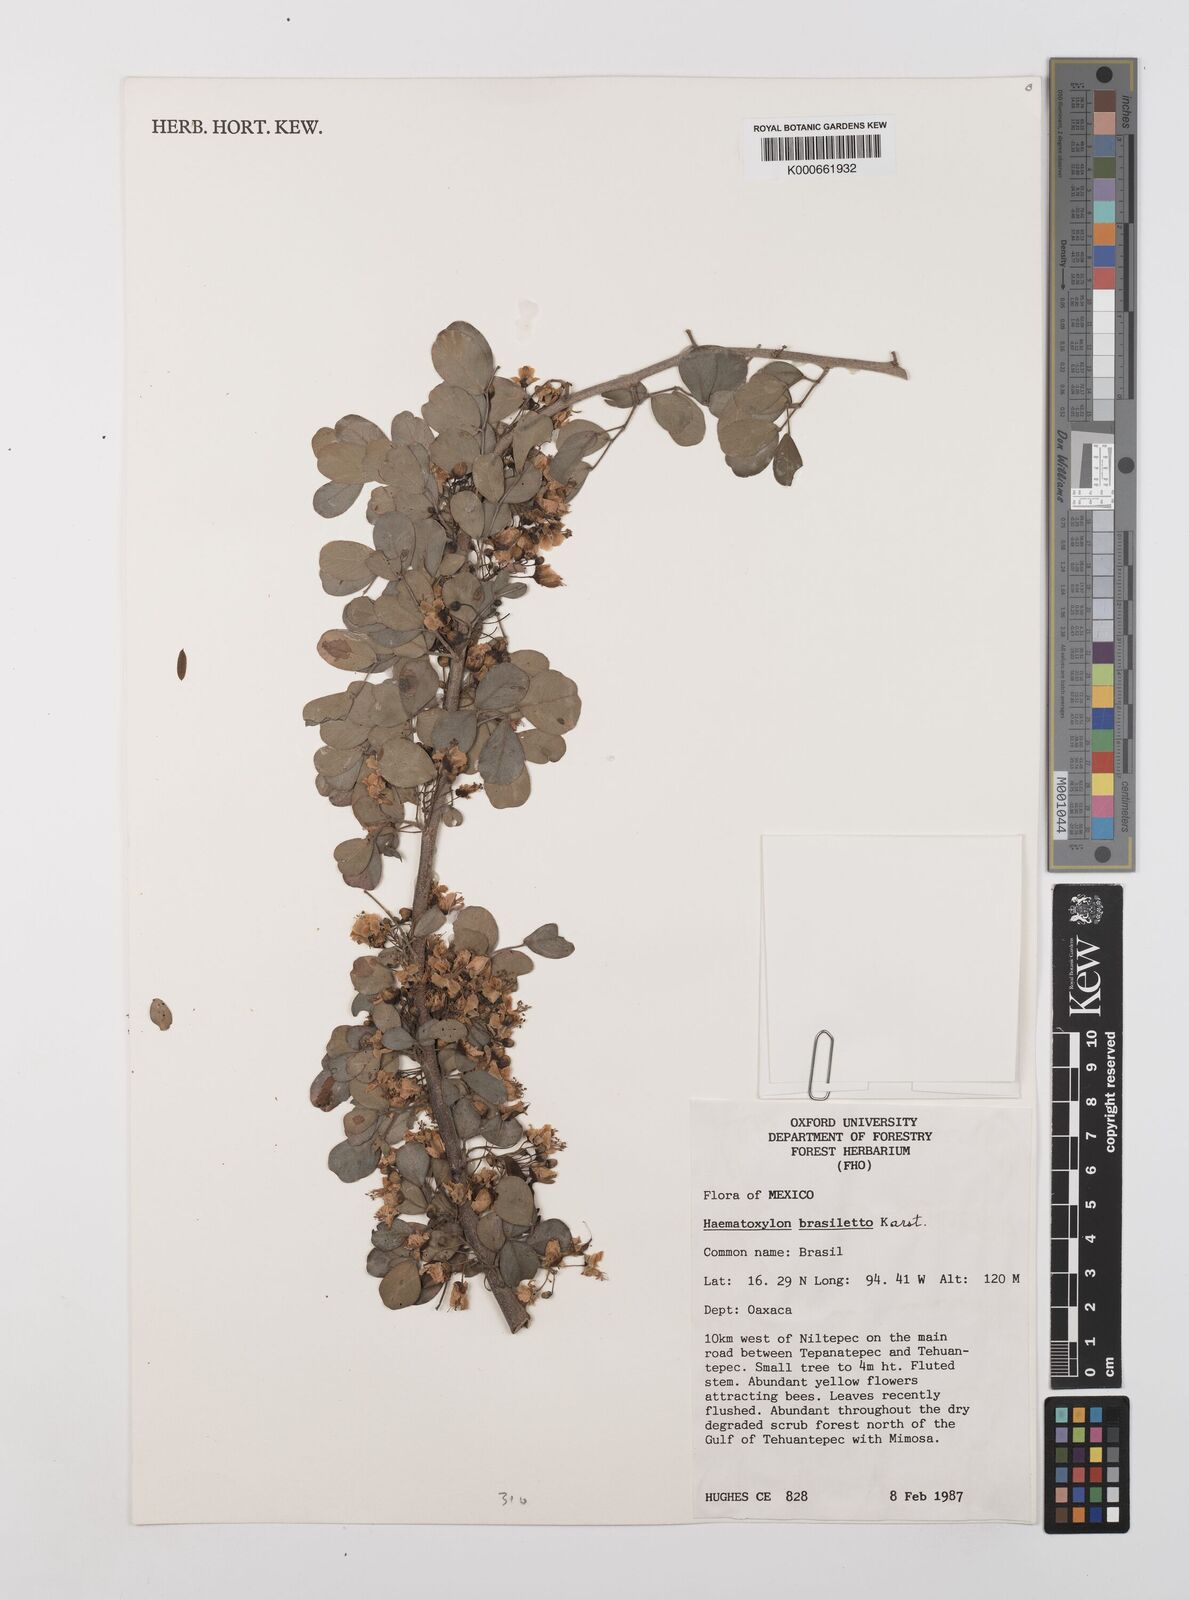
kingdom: Plantae
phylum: Tracheophyta
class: Magnoliopsida
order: Fabales
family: Fabaceae
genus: Haematoxylum
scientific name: Haematoxylum brasiletto
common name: Peachwood
